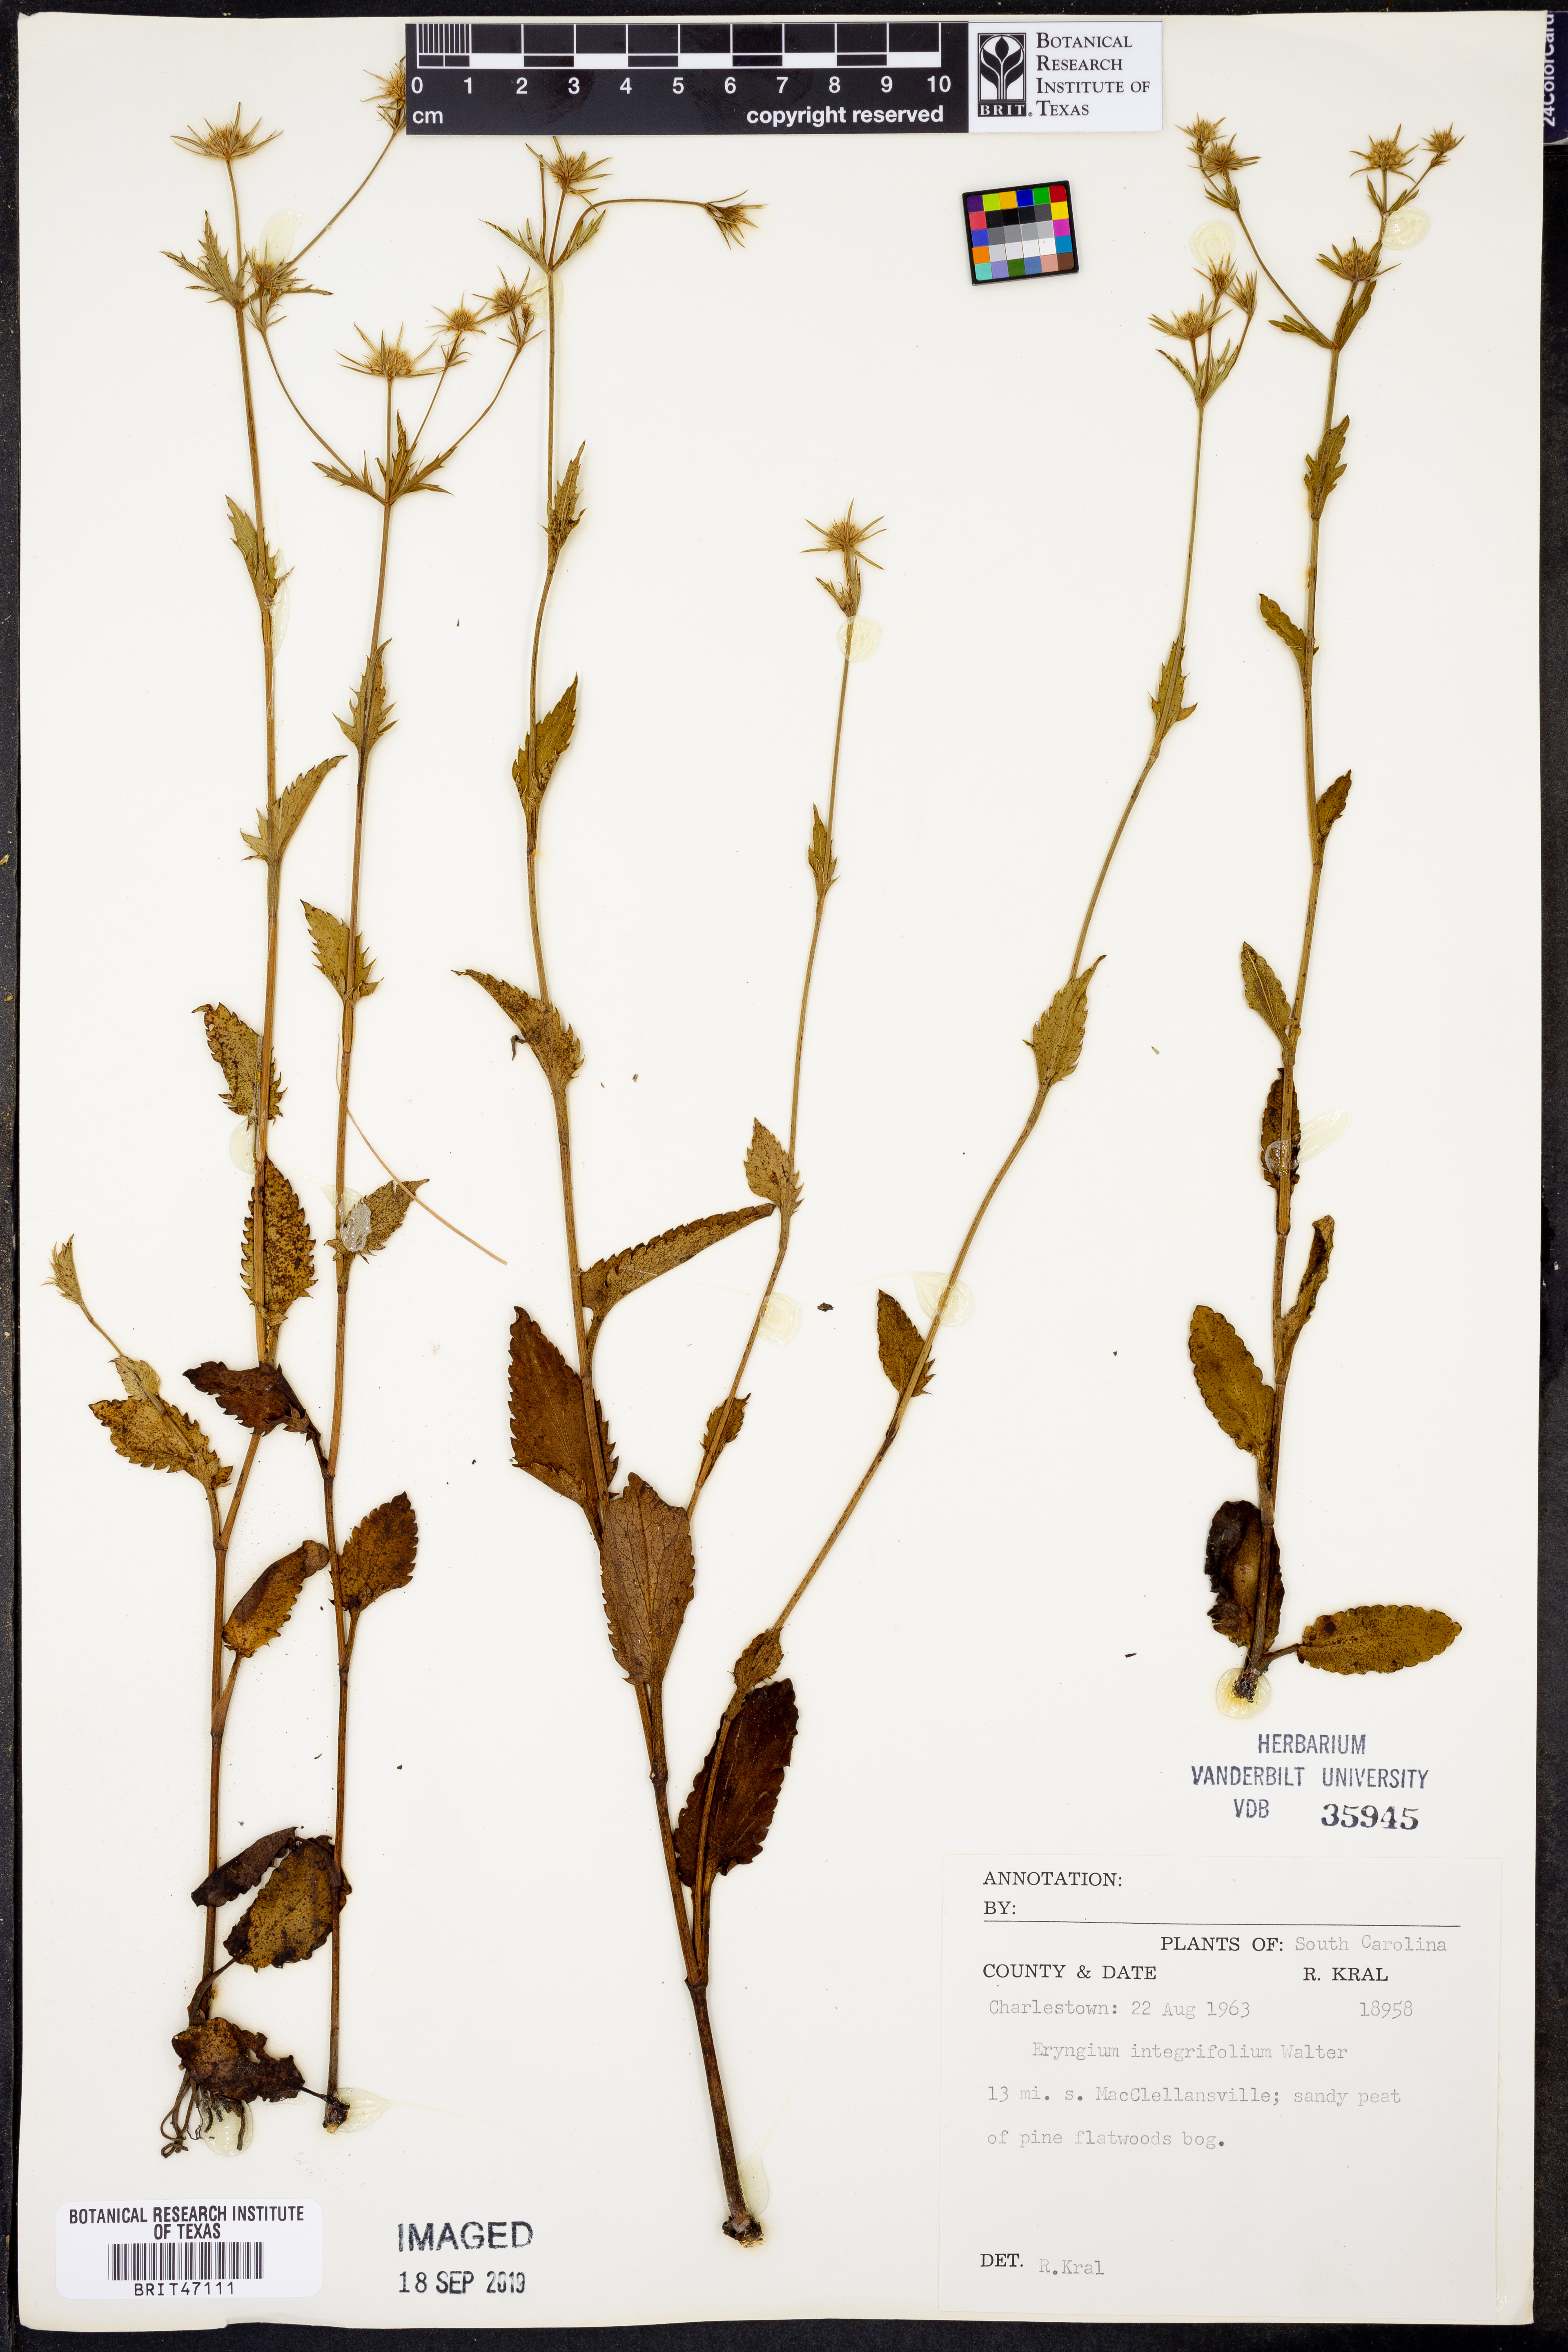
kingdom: Plantae
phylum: Tracheophyta
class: Magnoliopsida
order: Apiales
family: Apiaceae
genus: Eryngium
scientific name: Eryngium integrifolium
